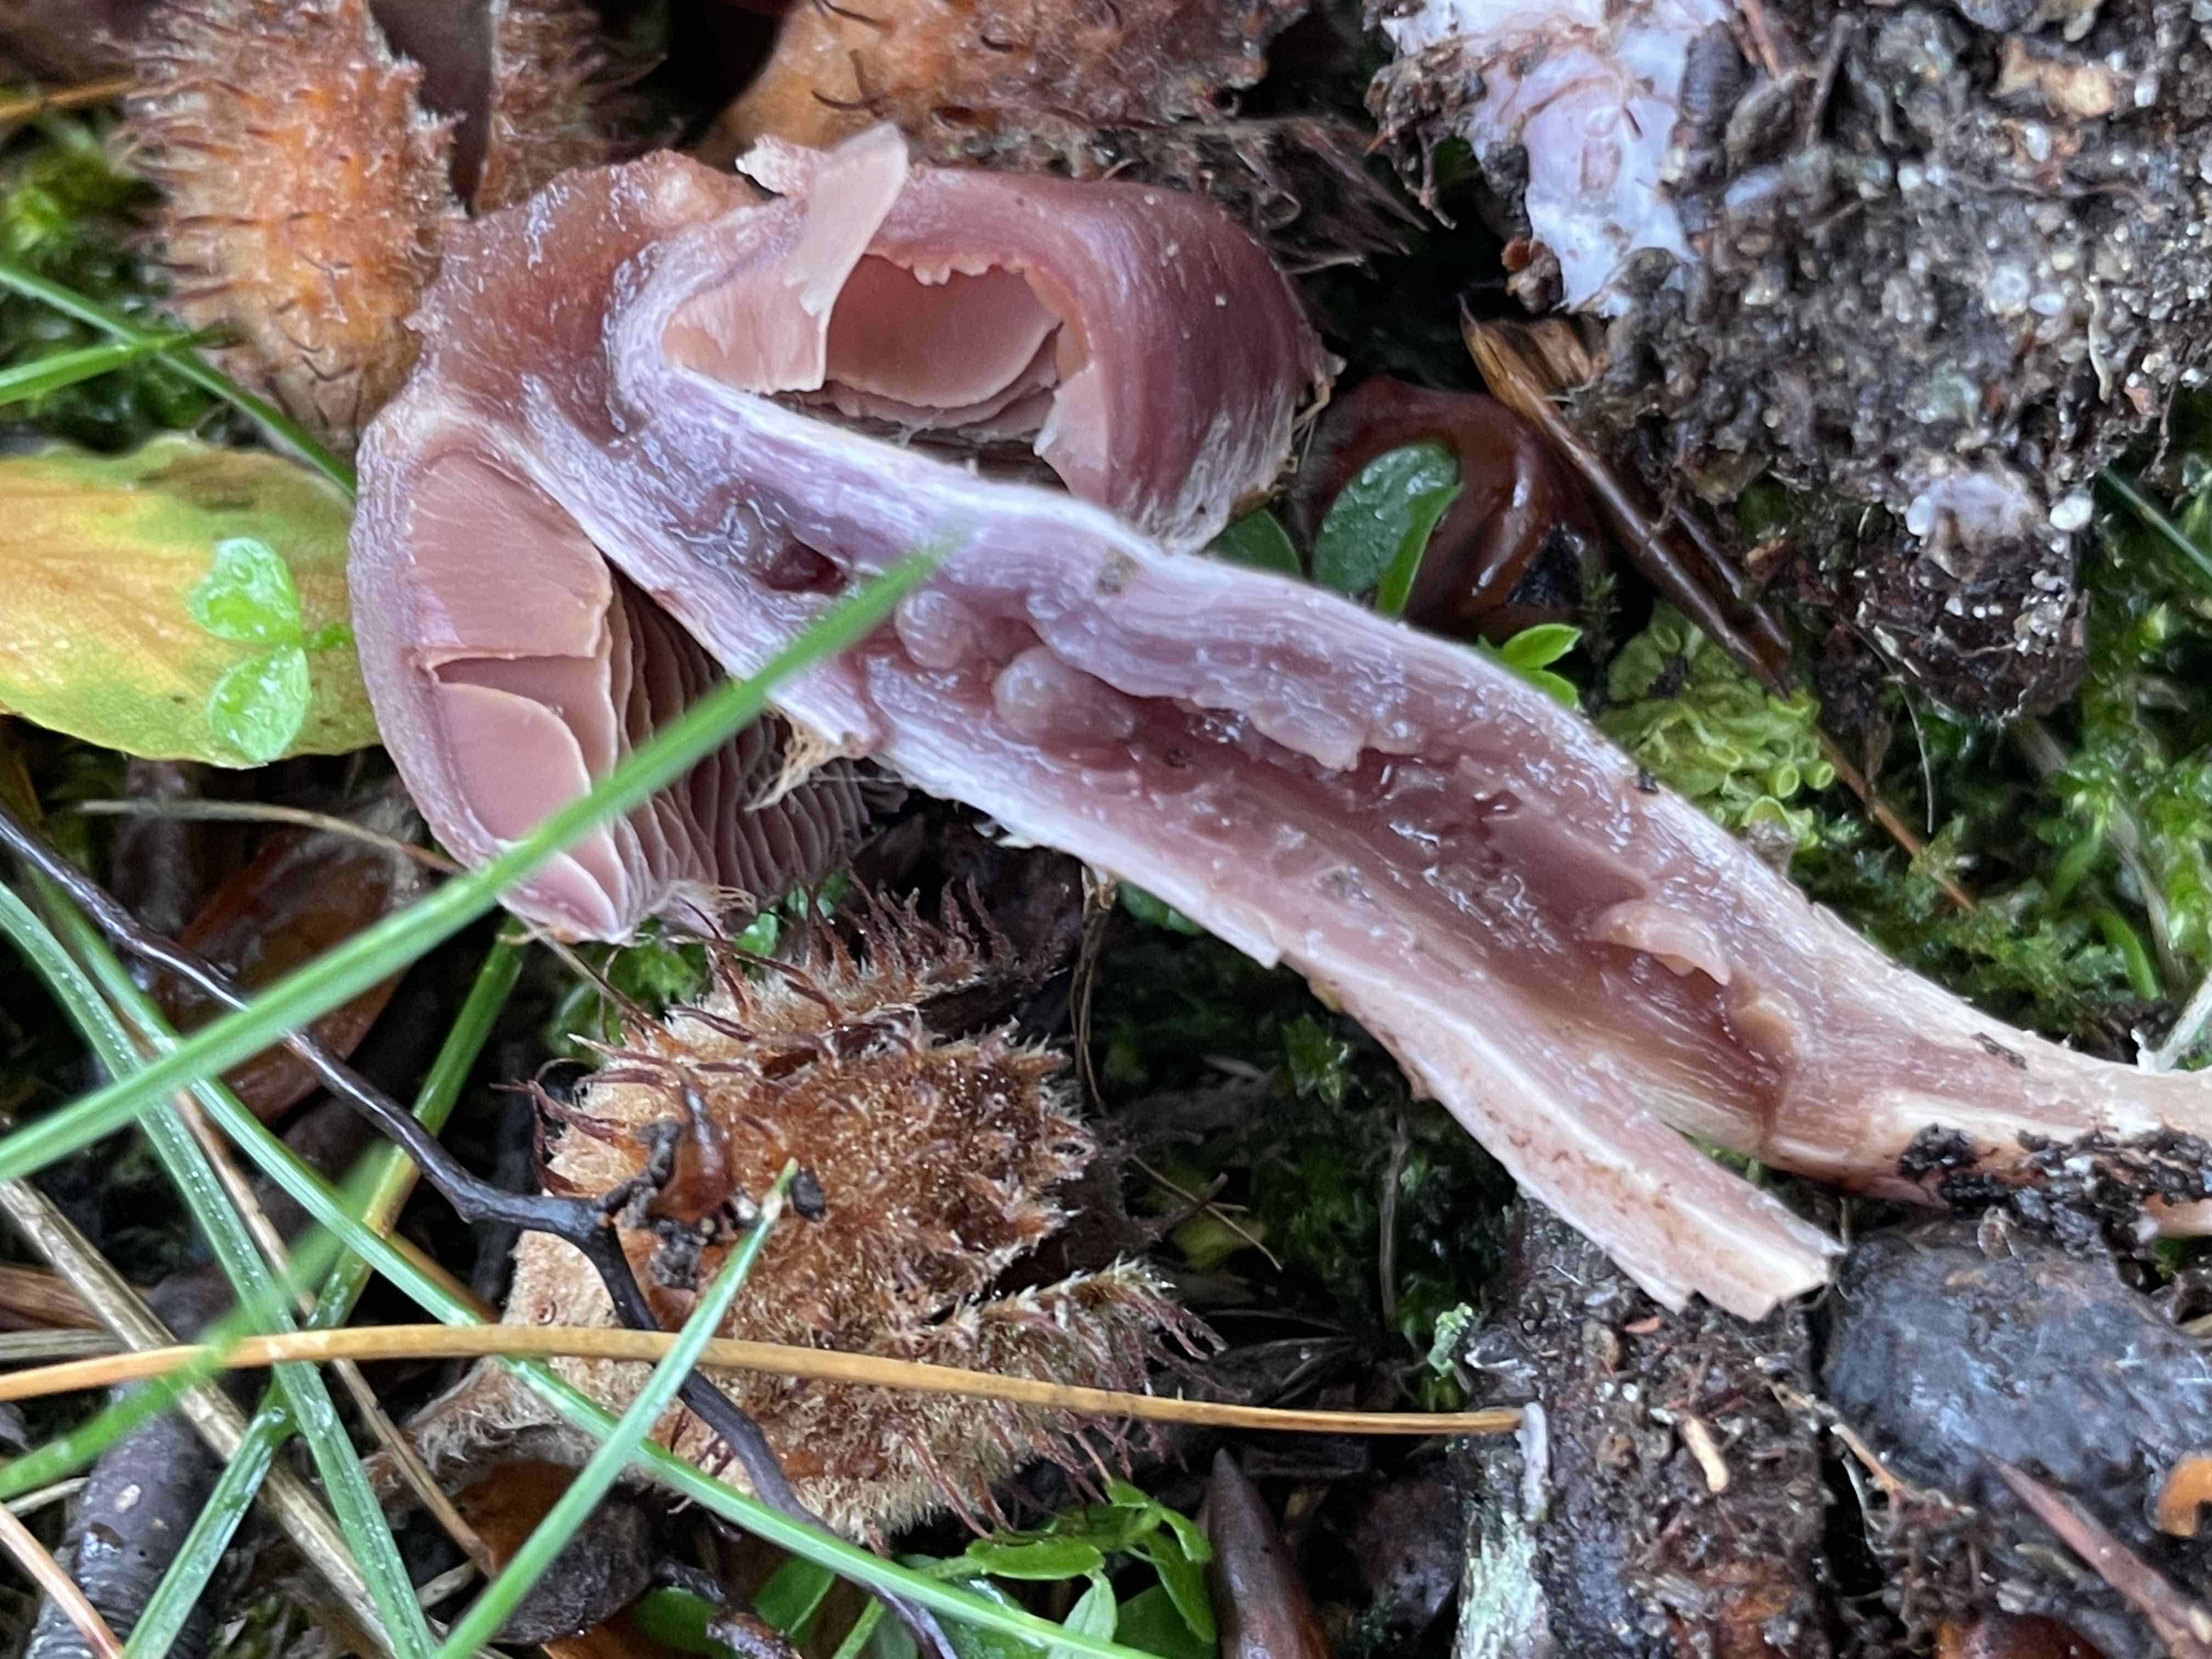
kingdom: Fungi
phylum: Basidiomycota
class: Agaricomycetes
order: Agaricales
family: Cortinariaceae
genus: Cortinarius
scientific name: Cortinarius serratissimus
